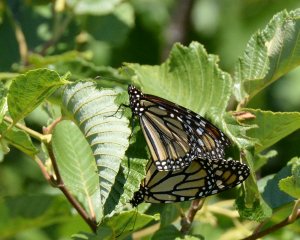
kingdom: Animalia
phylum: Arthropoda
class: Insecta
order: Lepidoptera
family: Nymphalidae
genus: Danaus
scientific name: Danaus plexippus
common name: Monarch
